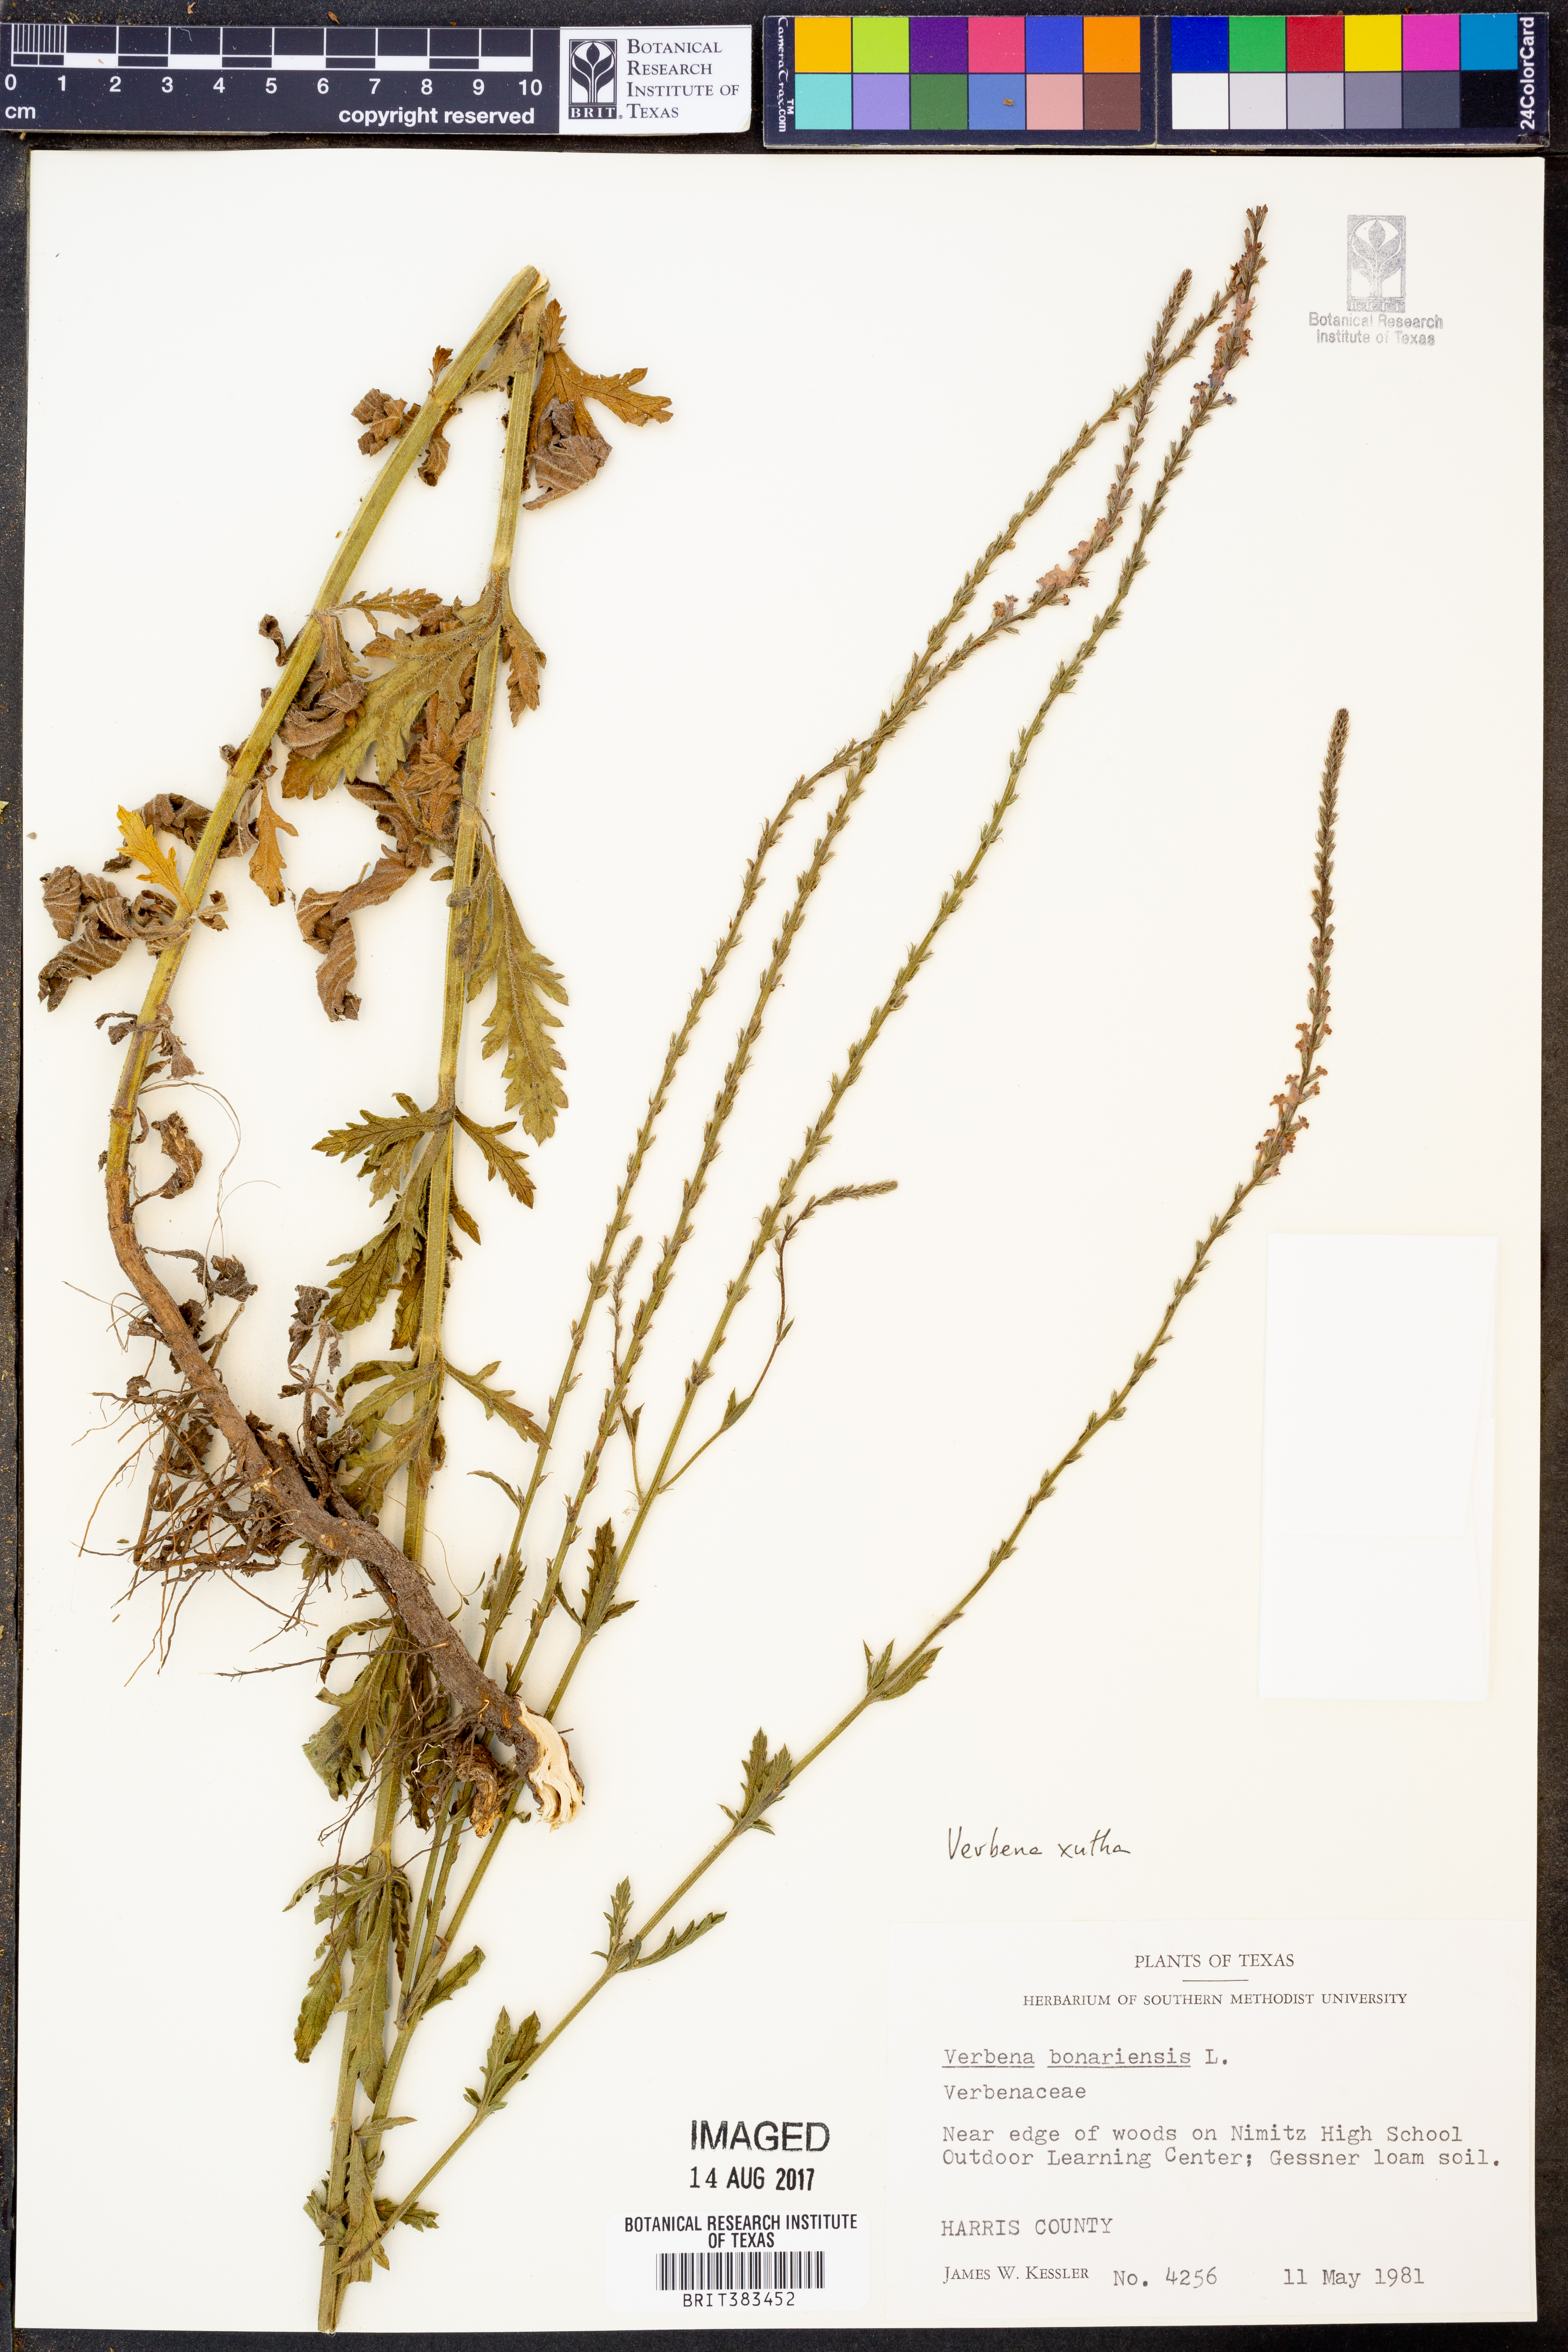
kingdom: Plantae
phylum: Tracheophyta
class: Magnoliopsida
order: Lamiales
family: Verbenaceae
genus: Verbena
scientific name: Verbena xutha
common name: Gulf vervain
